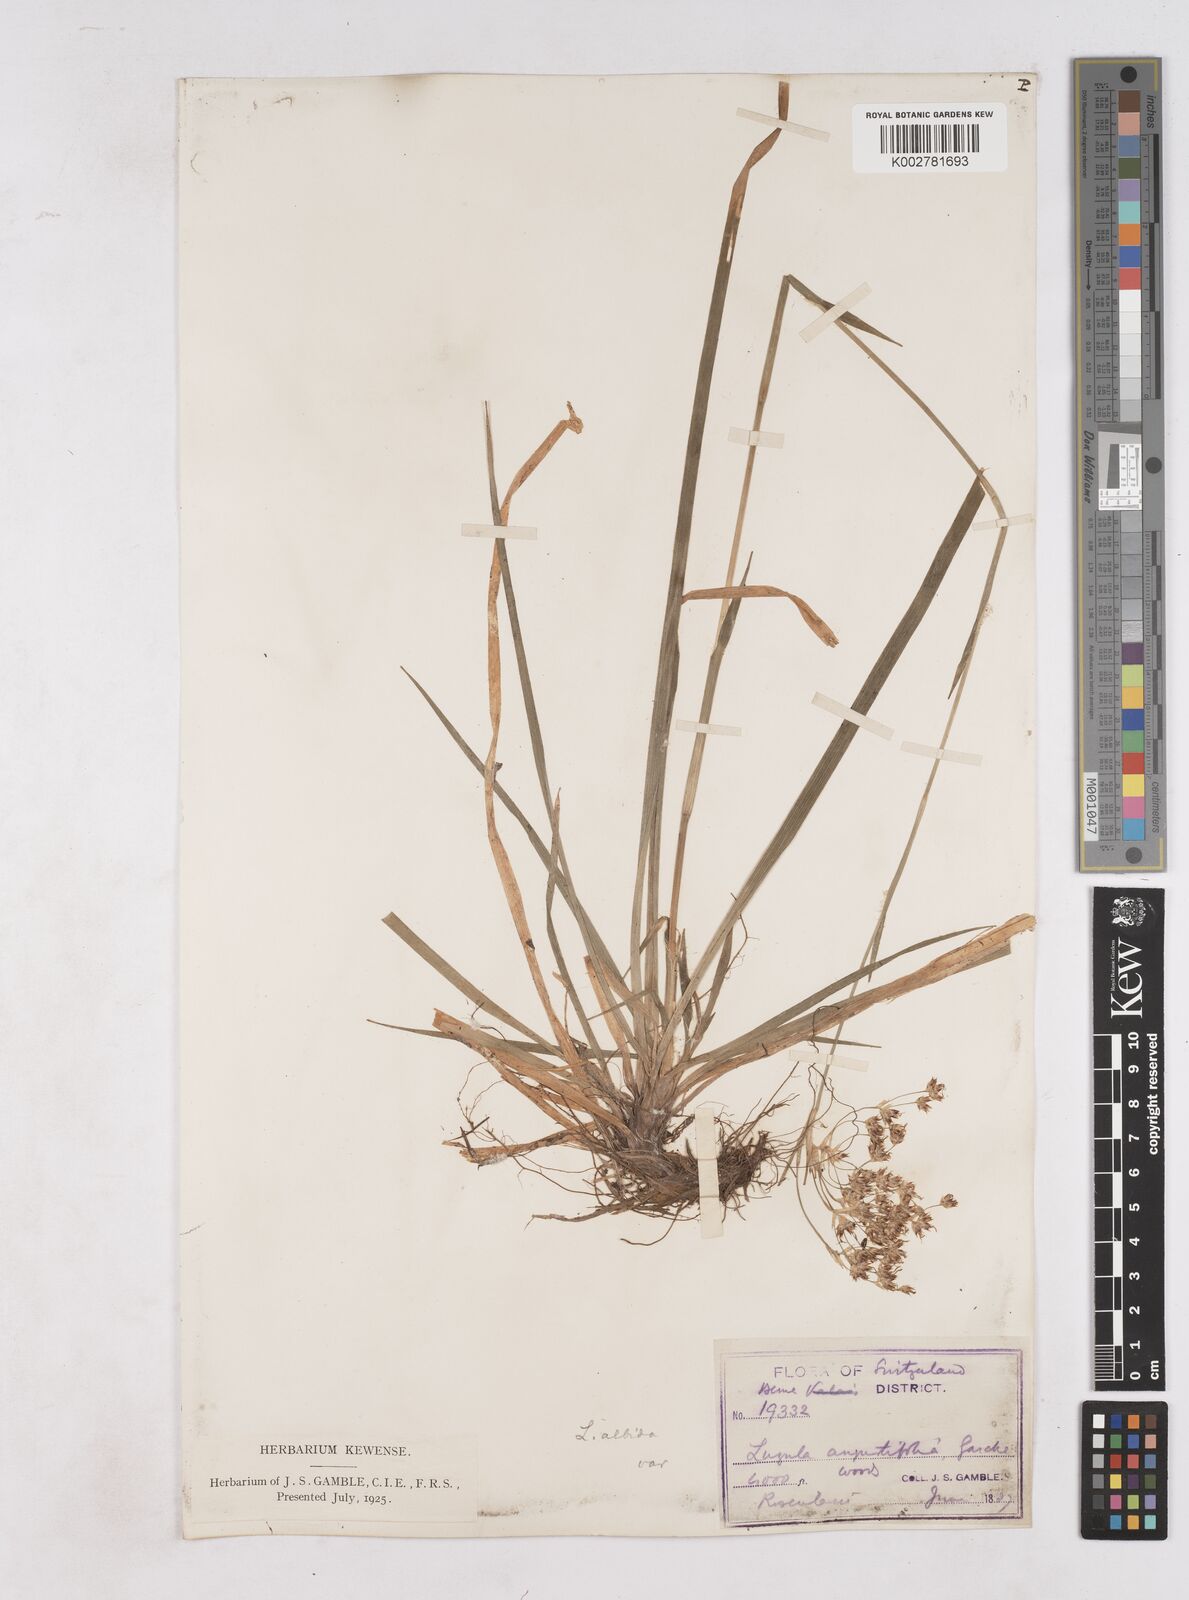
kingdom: Plantae
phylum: Tracheophyta
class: Liliopsida
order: Poales
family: Juncaceae
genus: Luzula
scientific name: Luzula luzuloides
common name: White wood-rush
